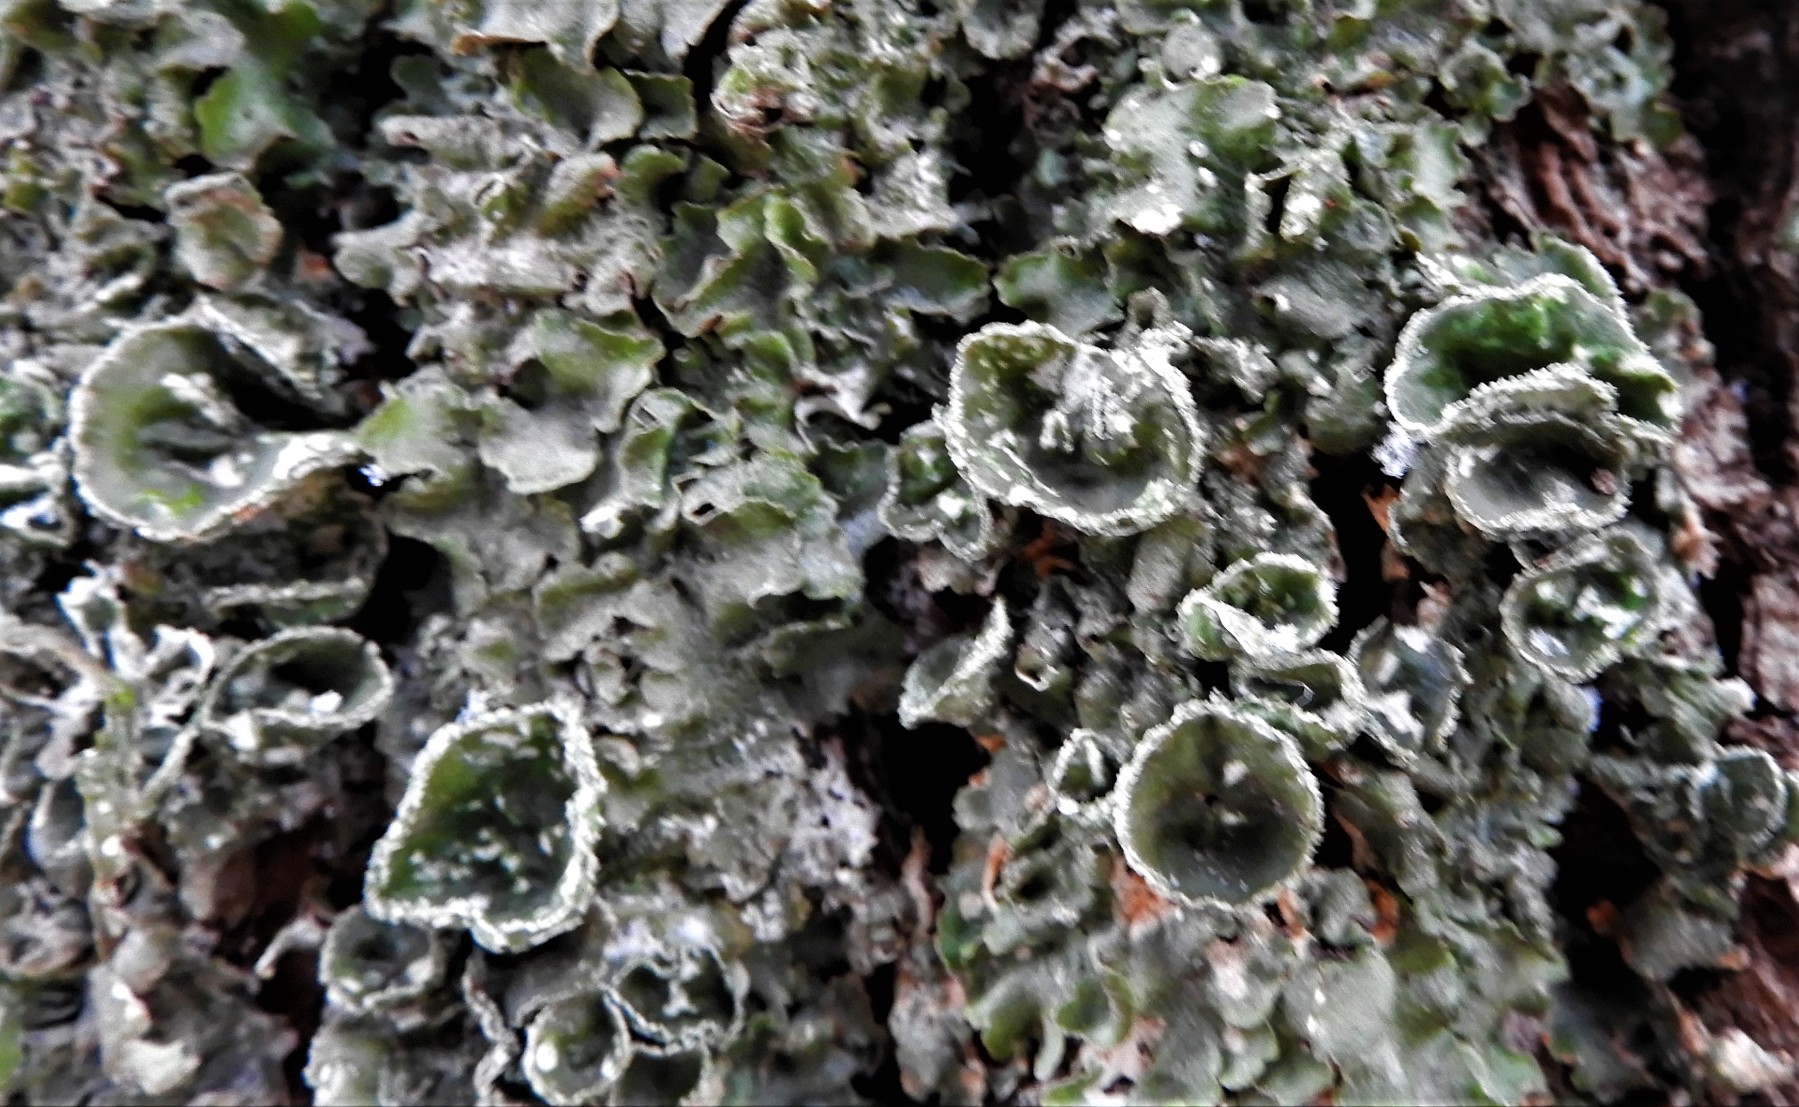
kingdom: Fungi
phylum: Ascomycota
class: Lecanoromycetes
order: Lecanorales
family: Parmeliaceae
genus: Pleurosticta
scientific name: Pleurosticta acetabulum
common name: stor skållav
